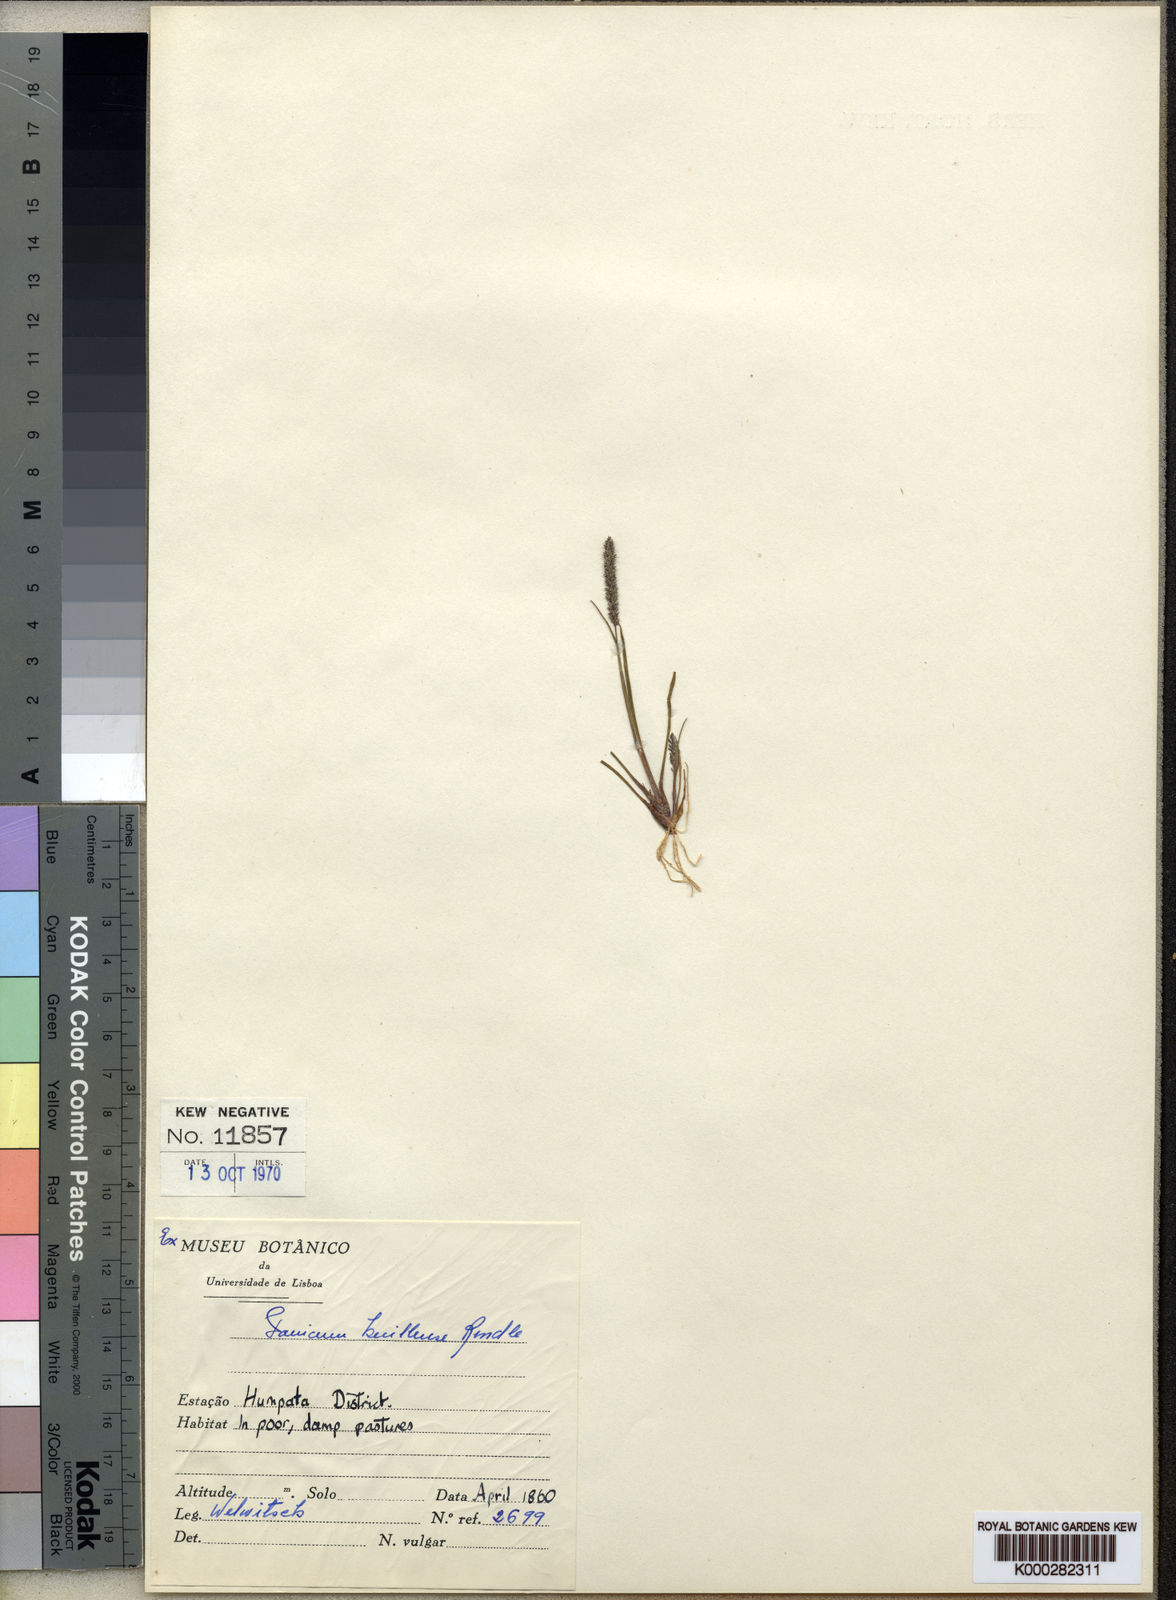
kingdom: Plantae
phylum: Tracheophyta
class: Liliopsida
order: Poales
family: Poaceae
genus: Sacciolepis
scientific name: Sacciolepis myosuroides
